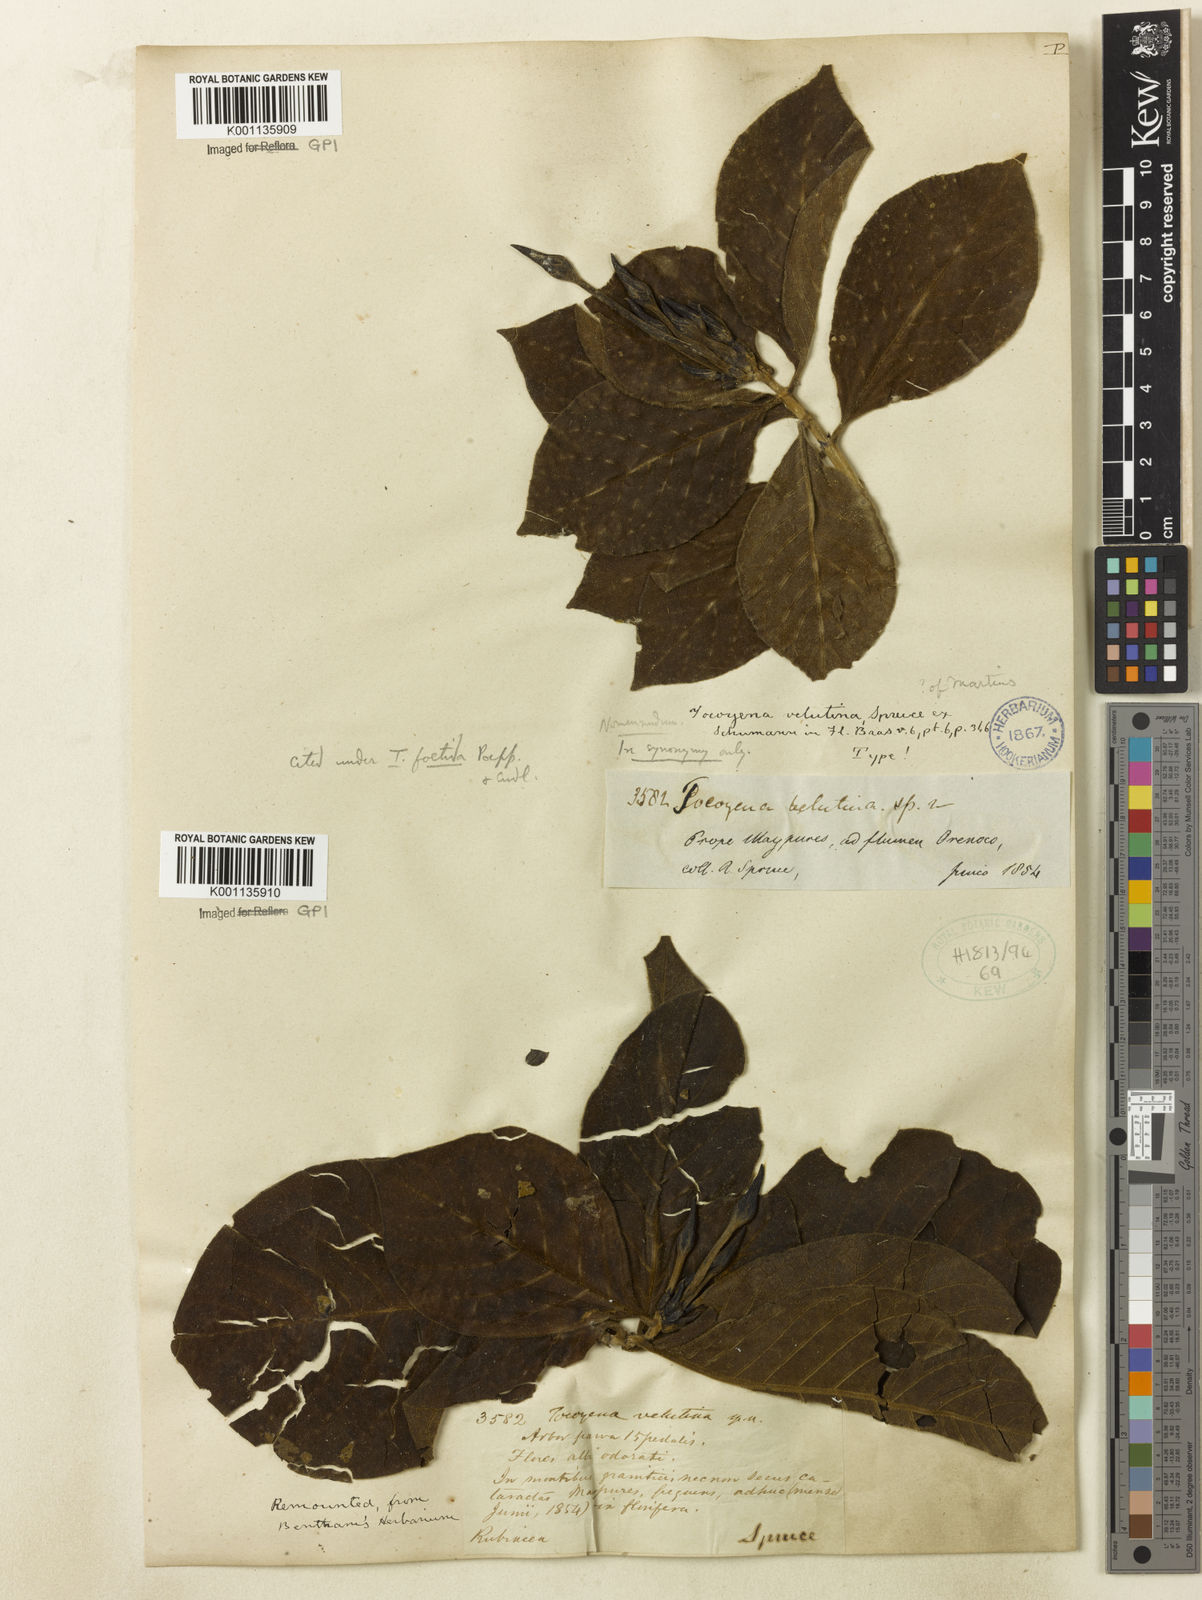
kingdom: Plantae
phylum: Tracheophyta
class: Magnoliopsida
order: Gentianales
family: Rubiaceae
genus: Tocoyena
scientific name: Tocoyena neglecta
